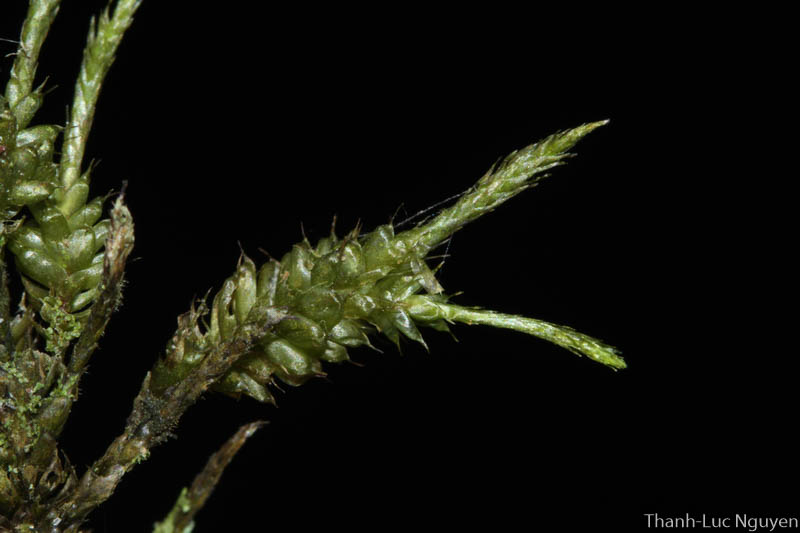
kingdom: Plantae
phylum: Bryophyta
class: Bryopsida
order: Hypnales
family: Pterobryaceae
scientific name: Pterobryaceae
